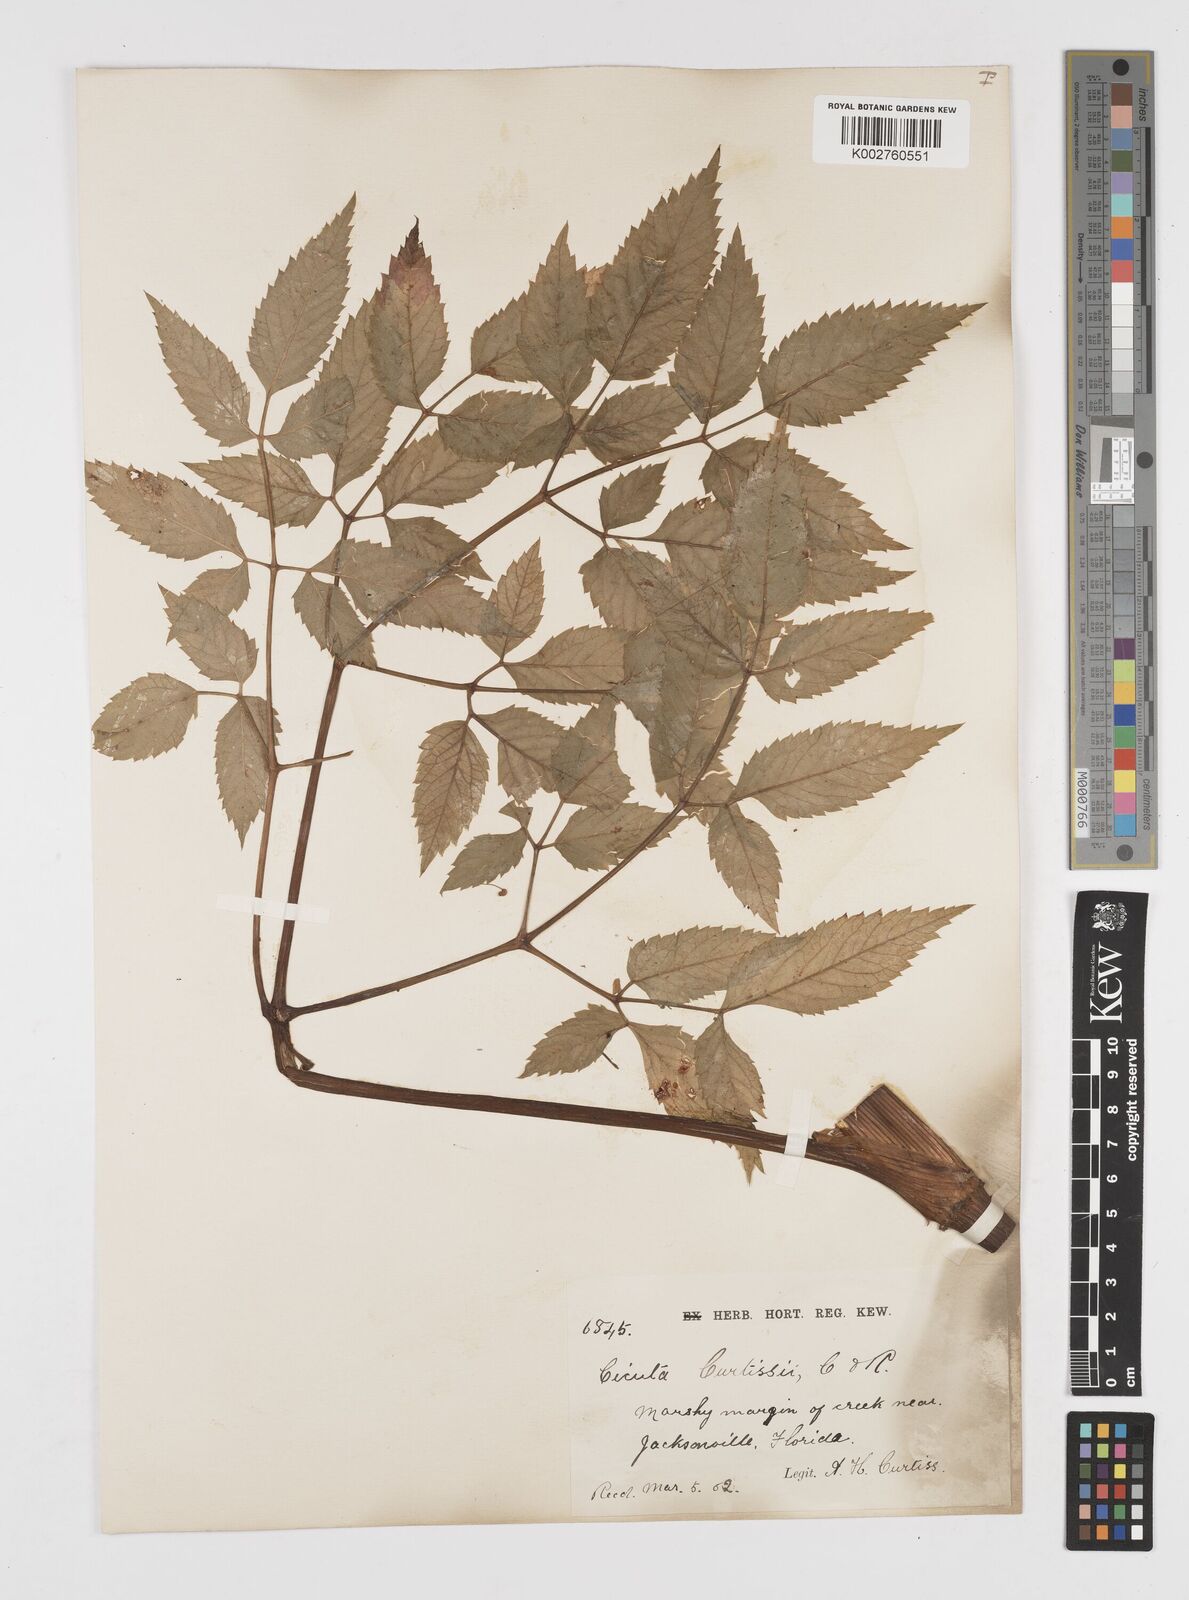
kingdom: Plantae
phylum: Tracheophyta
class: Magnoliopsida
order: Apiales
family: Apiaceae
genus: Cicuta
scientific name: Cicuta douglasii
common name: Western water-hemlock
